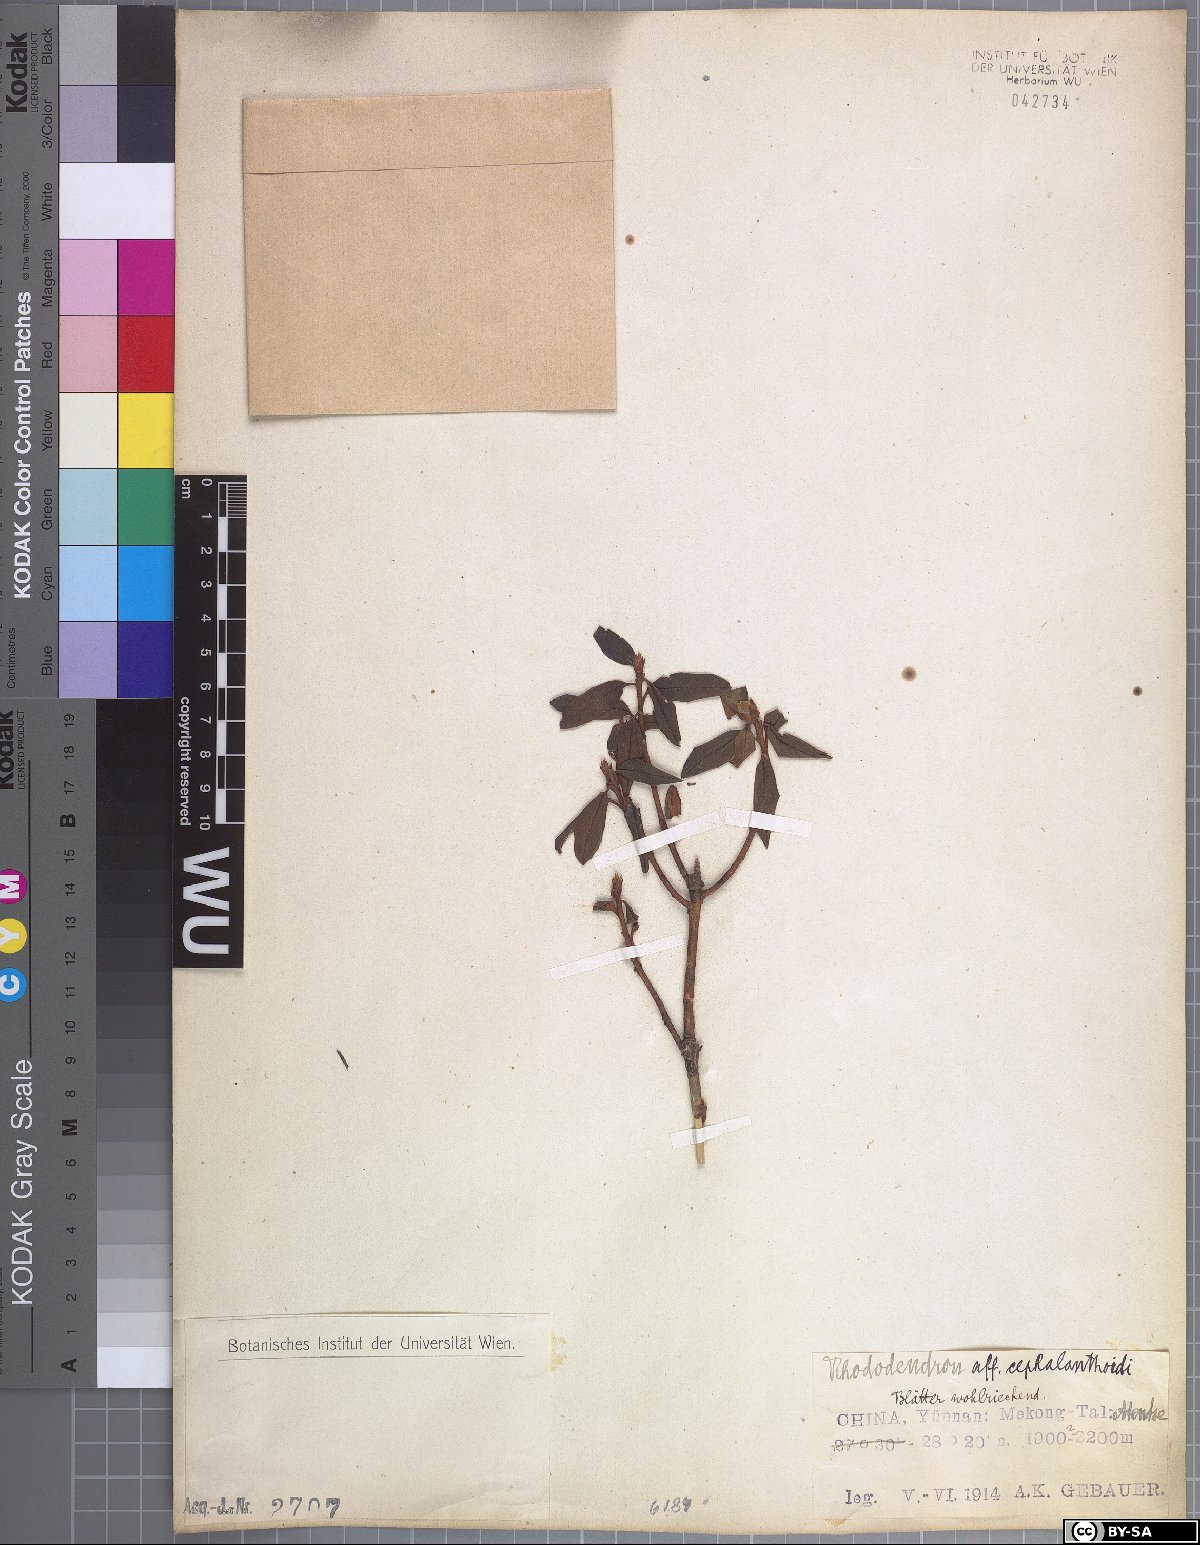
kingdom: Plantae
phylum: Tracheophyta
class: Magnoliopsida
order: Ericales
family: Ericaceae
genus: Rhododendron
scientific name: Rhododendron primuliflorum
